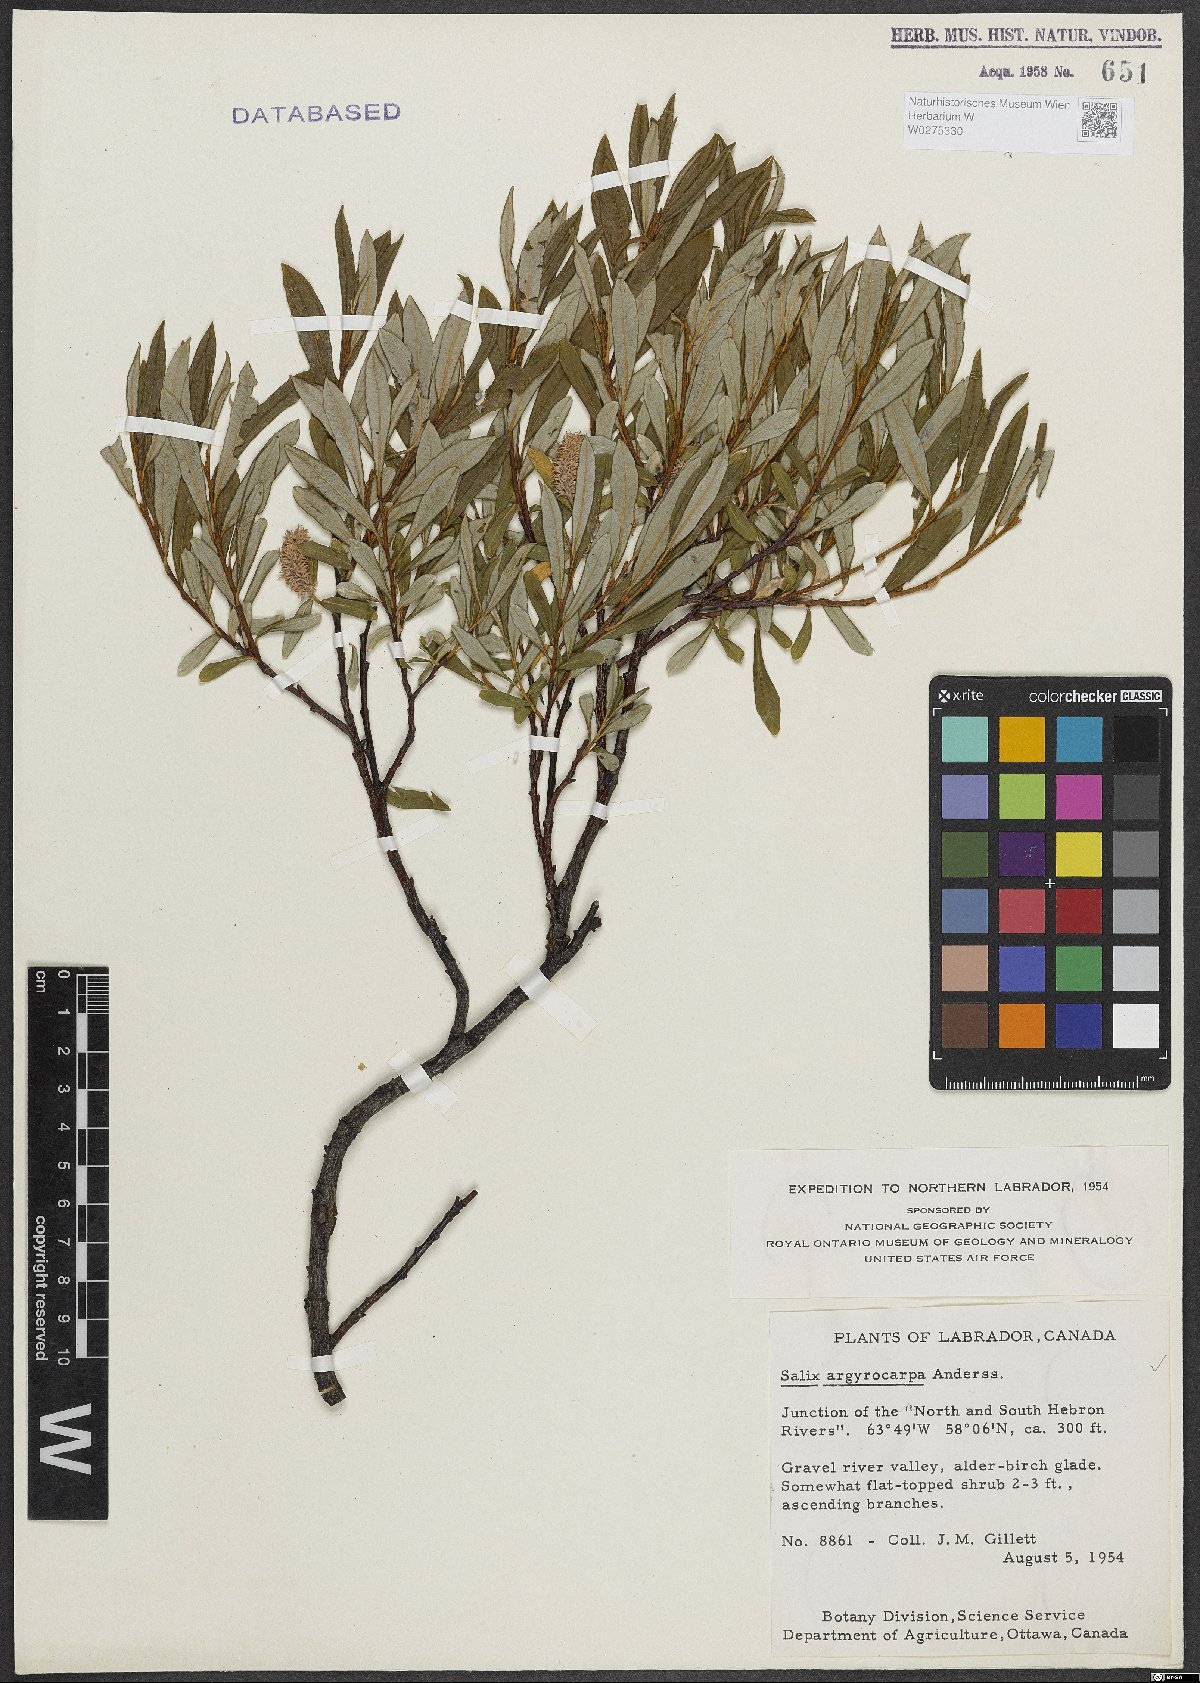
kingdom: Plantae
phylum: Tracheophyta
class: Magnoliopsida
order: Malpighiales
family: Salicaceae
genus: Salix
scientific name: Salix argyrocarpa
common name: Labrador willow
